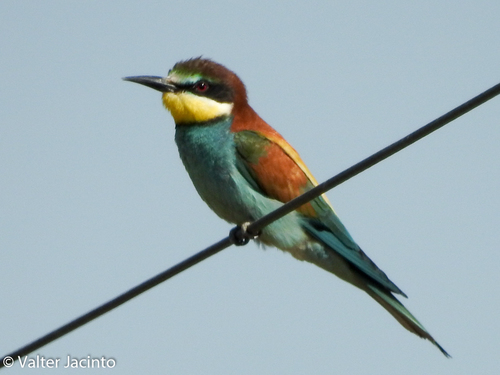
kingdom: Animalia
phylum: Chordata
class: Aves
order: Coraciiformes
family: Meropidae
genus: Merops
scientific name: Merops apiaster
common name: European bee-eater
